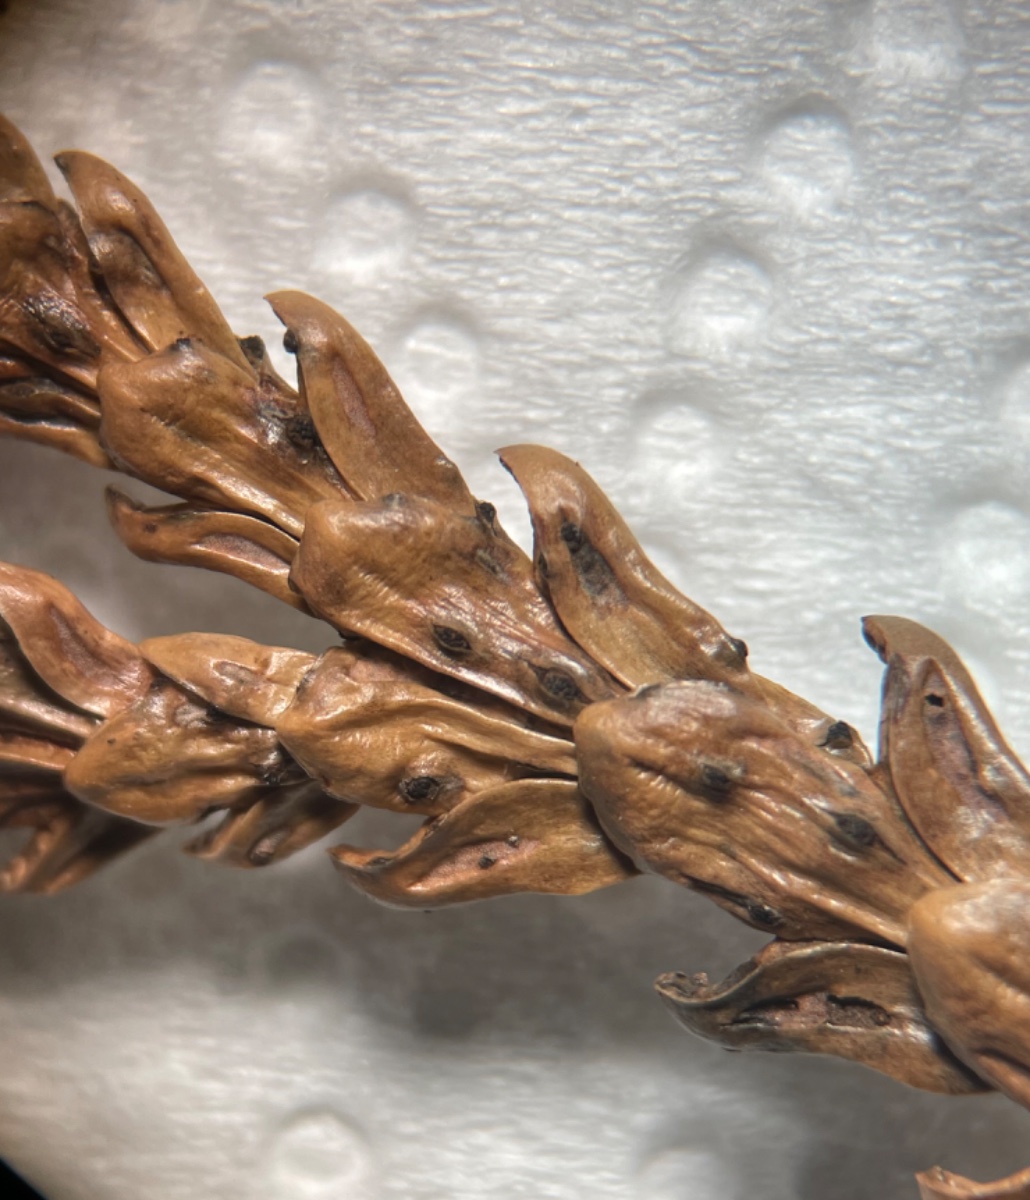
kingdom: Fungi
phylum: Ascomycota
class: Sordariomycetes
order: Diaporthales
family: Valsaceae
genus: Valsa
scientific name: Valsa
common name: kulknippe
